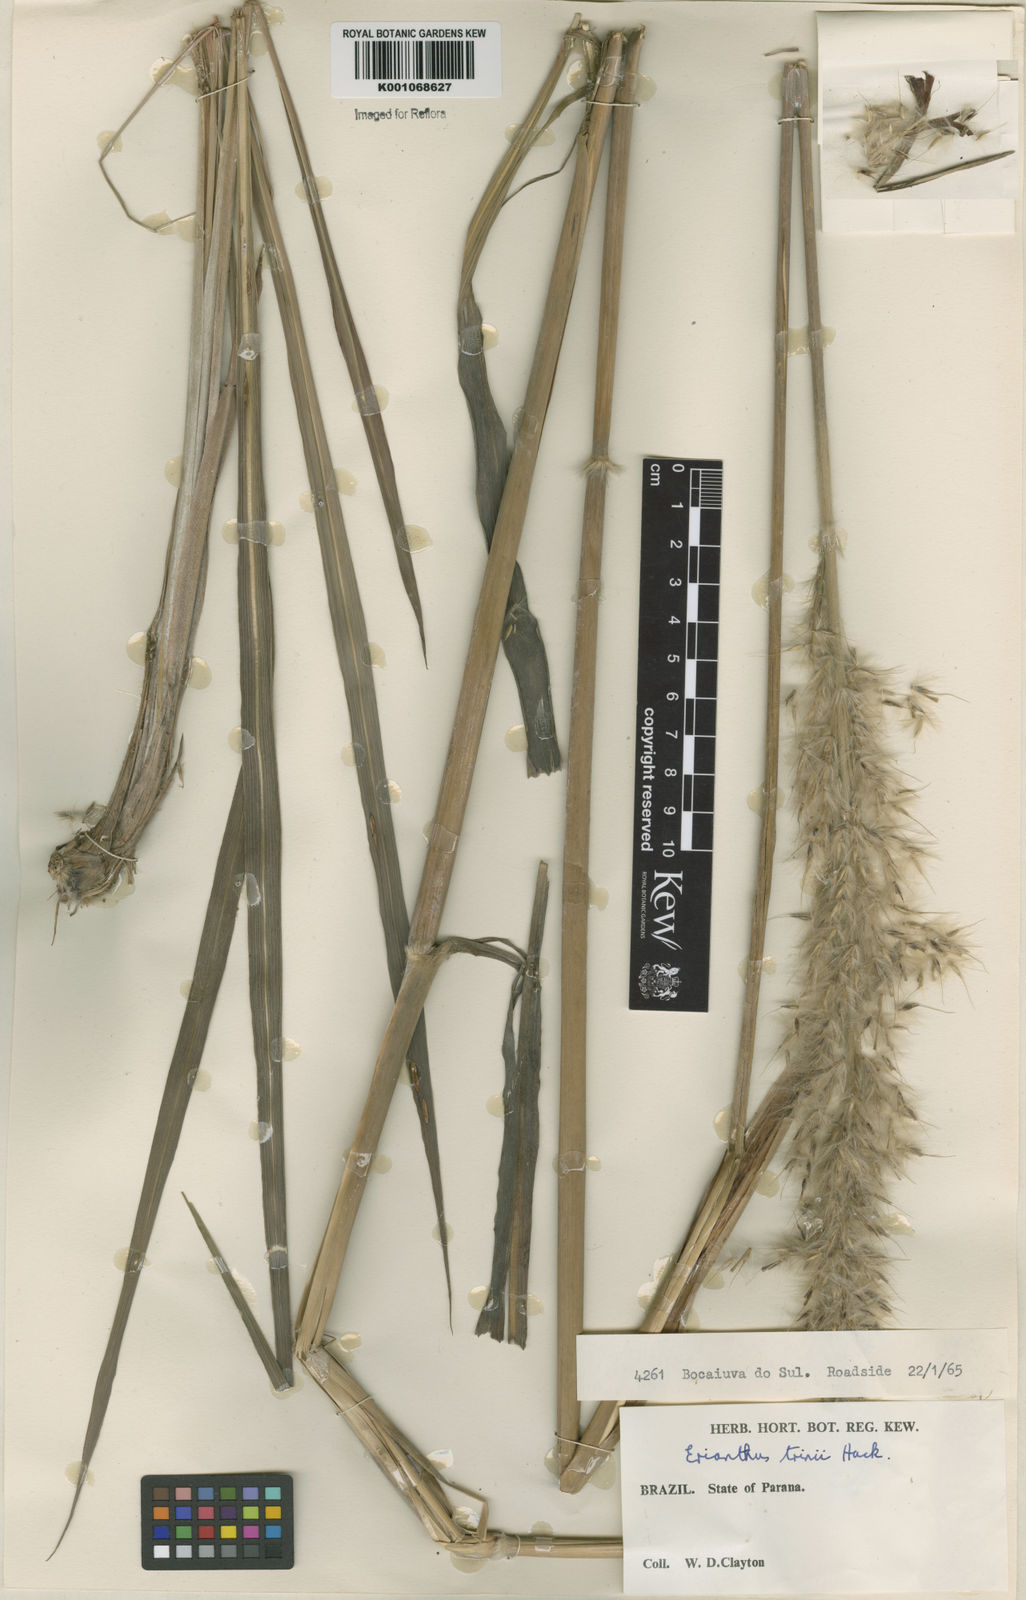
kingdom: Plantae
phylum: Tracheophyta
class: Liliopsida
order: Poales
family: Poaceae
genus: Saccharum
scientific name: Saccharum angustifolium
